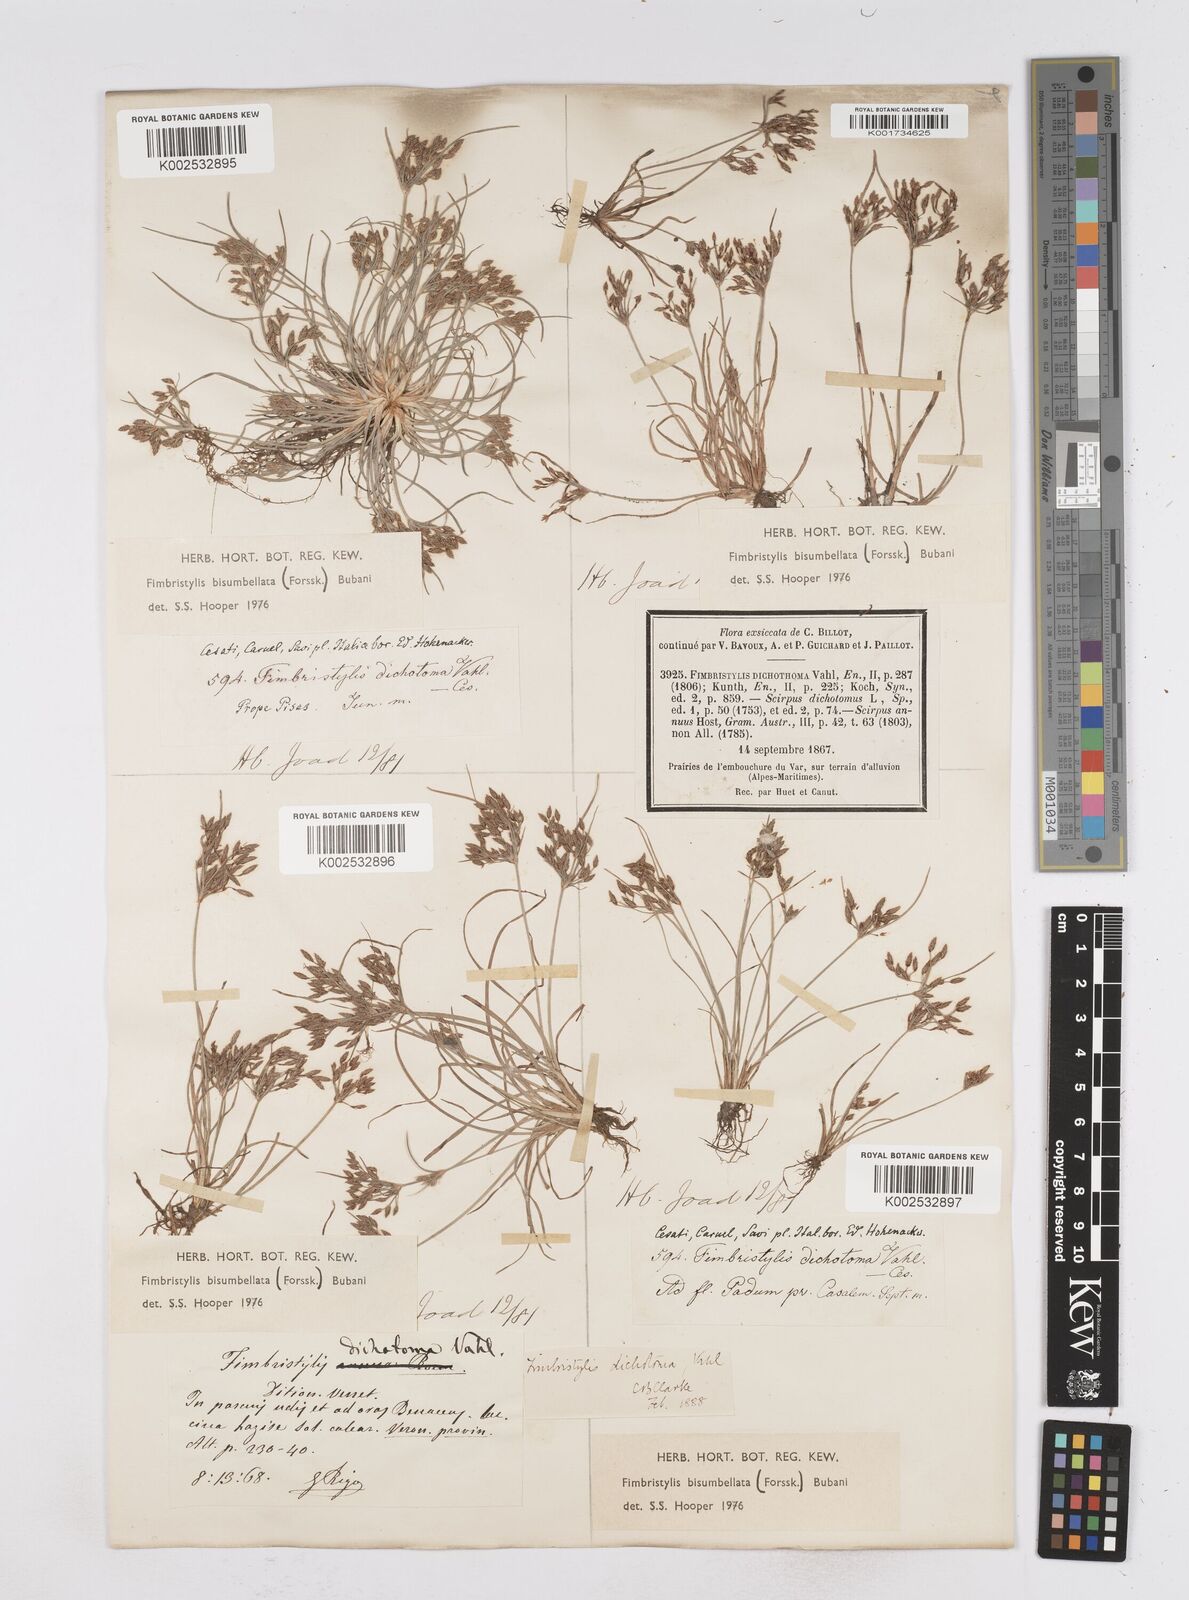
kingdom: Plantae
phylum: Tracheophyta
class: Liliopsida
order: Poales
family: Cyperaceae
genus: Fimbristylis
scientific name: Fimbristylis bisumbellata
